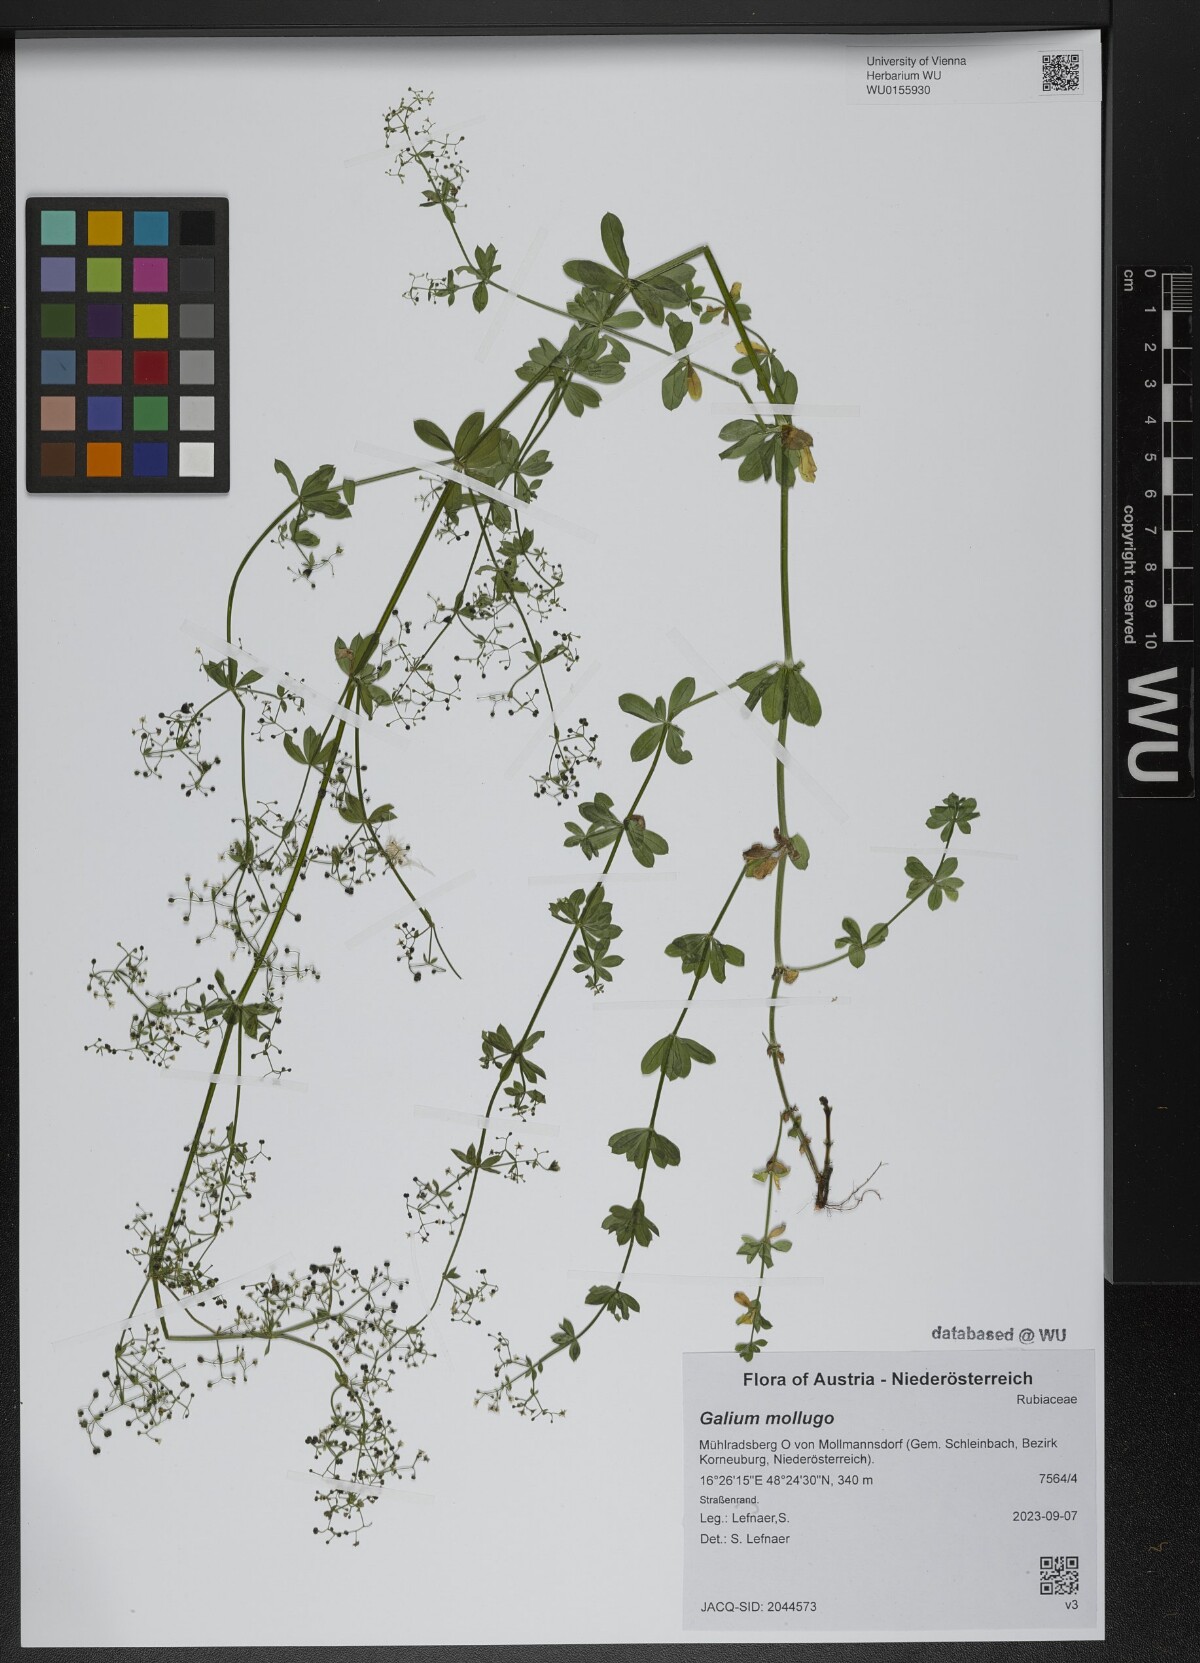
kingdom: Plantae
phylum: Tracheophyta
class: Magnoliopsida
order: Gentianales
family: Rubiaceae
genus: Galium
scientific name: Galium mollugo
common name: Hedge bedstraw
